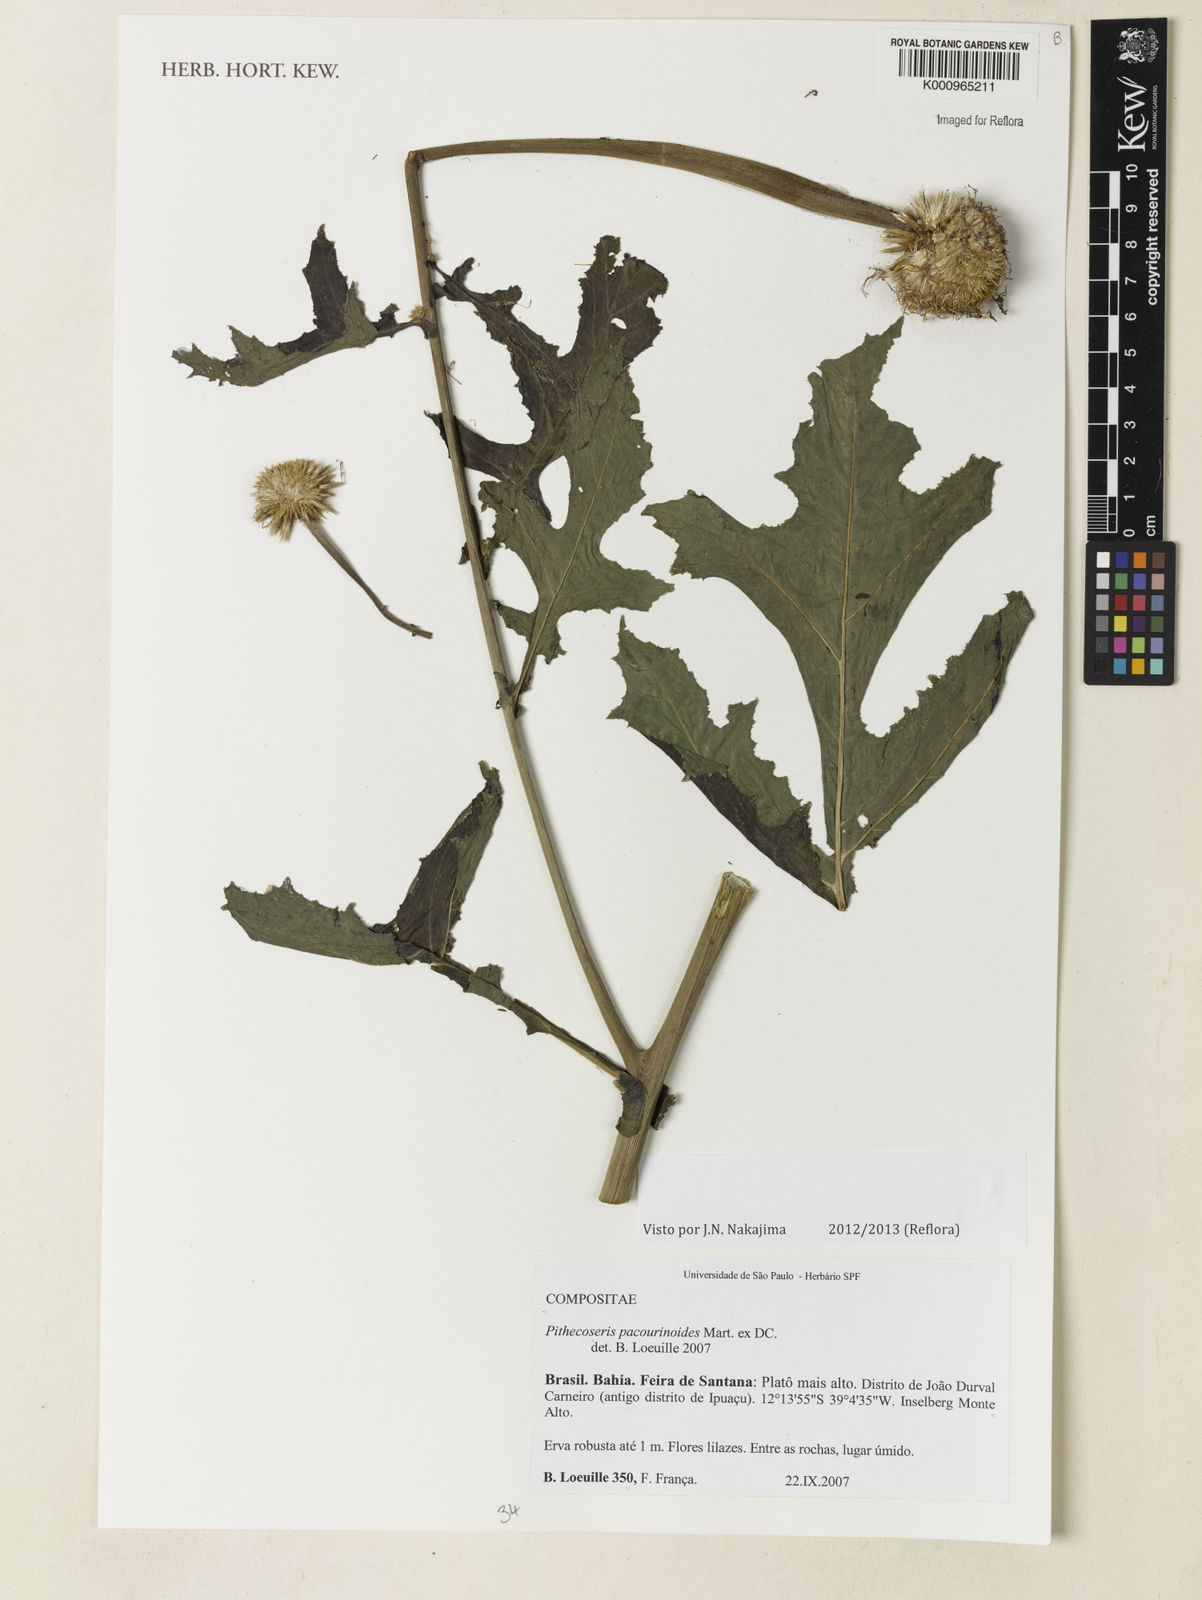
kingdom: Plantae
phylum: Tracheophyta
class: Magnoliopsida
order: Asterales
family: Asteraceae
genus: Chresta
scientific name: Chresta pacourinoides
